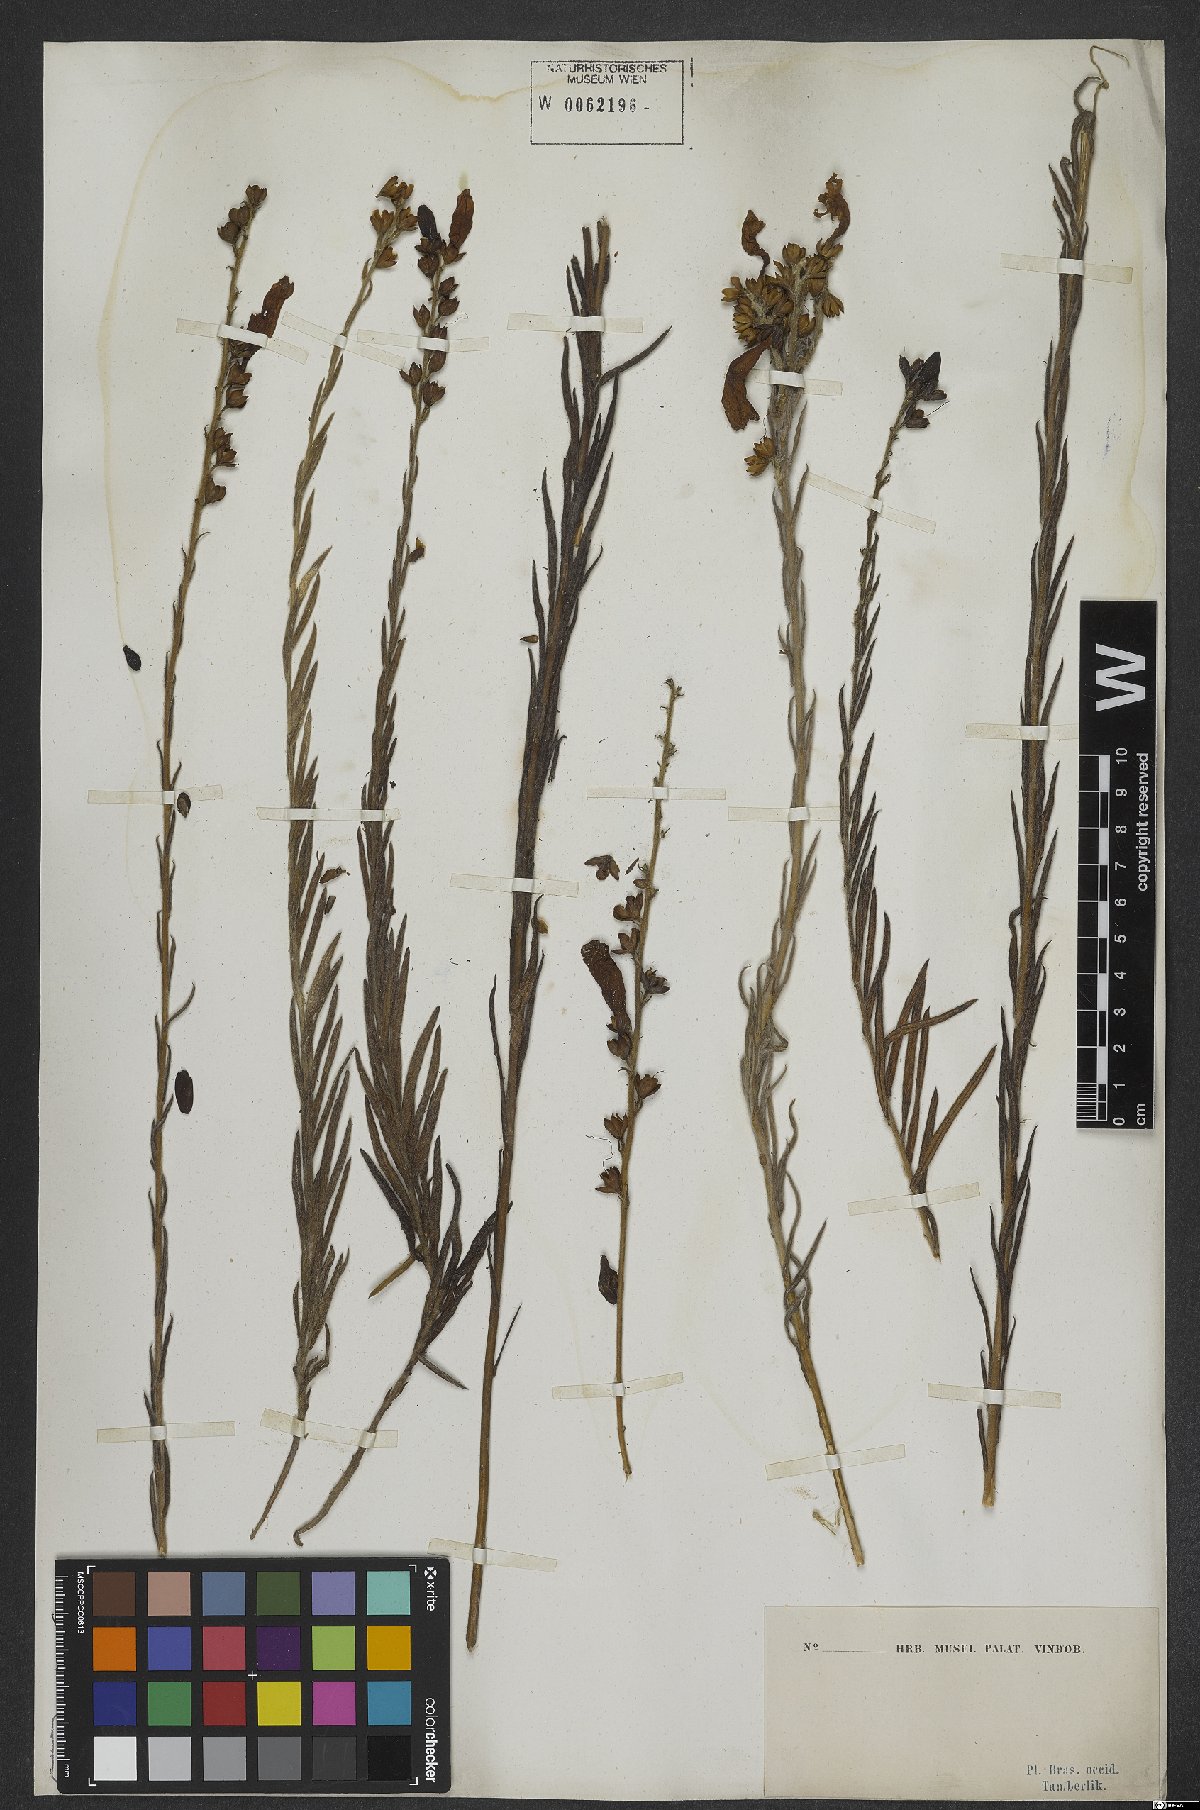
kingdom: Plantae
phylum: Tracheophyta
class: Magnoliopsida
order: Solanales
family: Convolvulaceae
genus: Ipomoea
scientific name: Ipomoea paulistana
